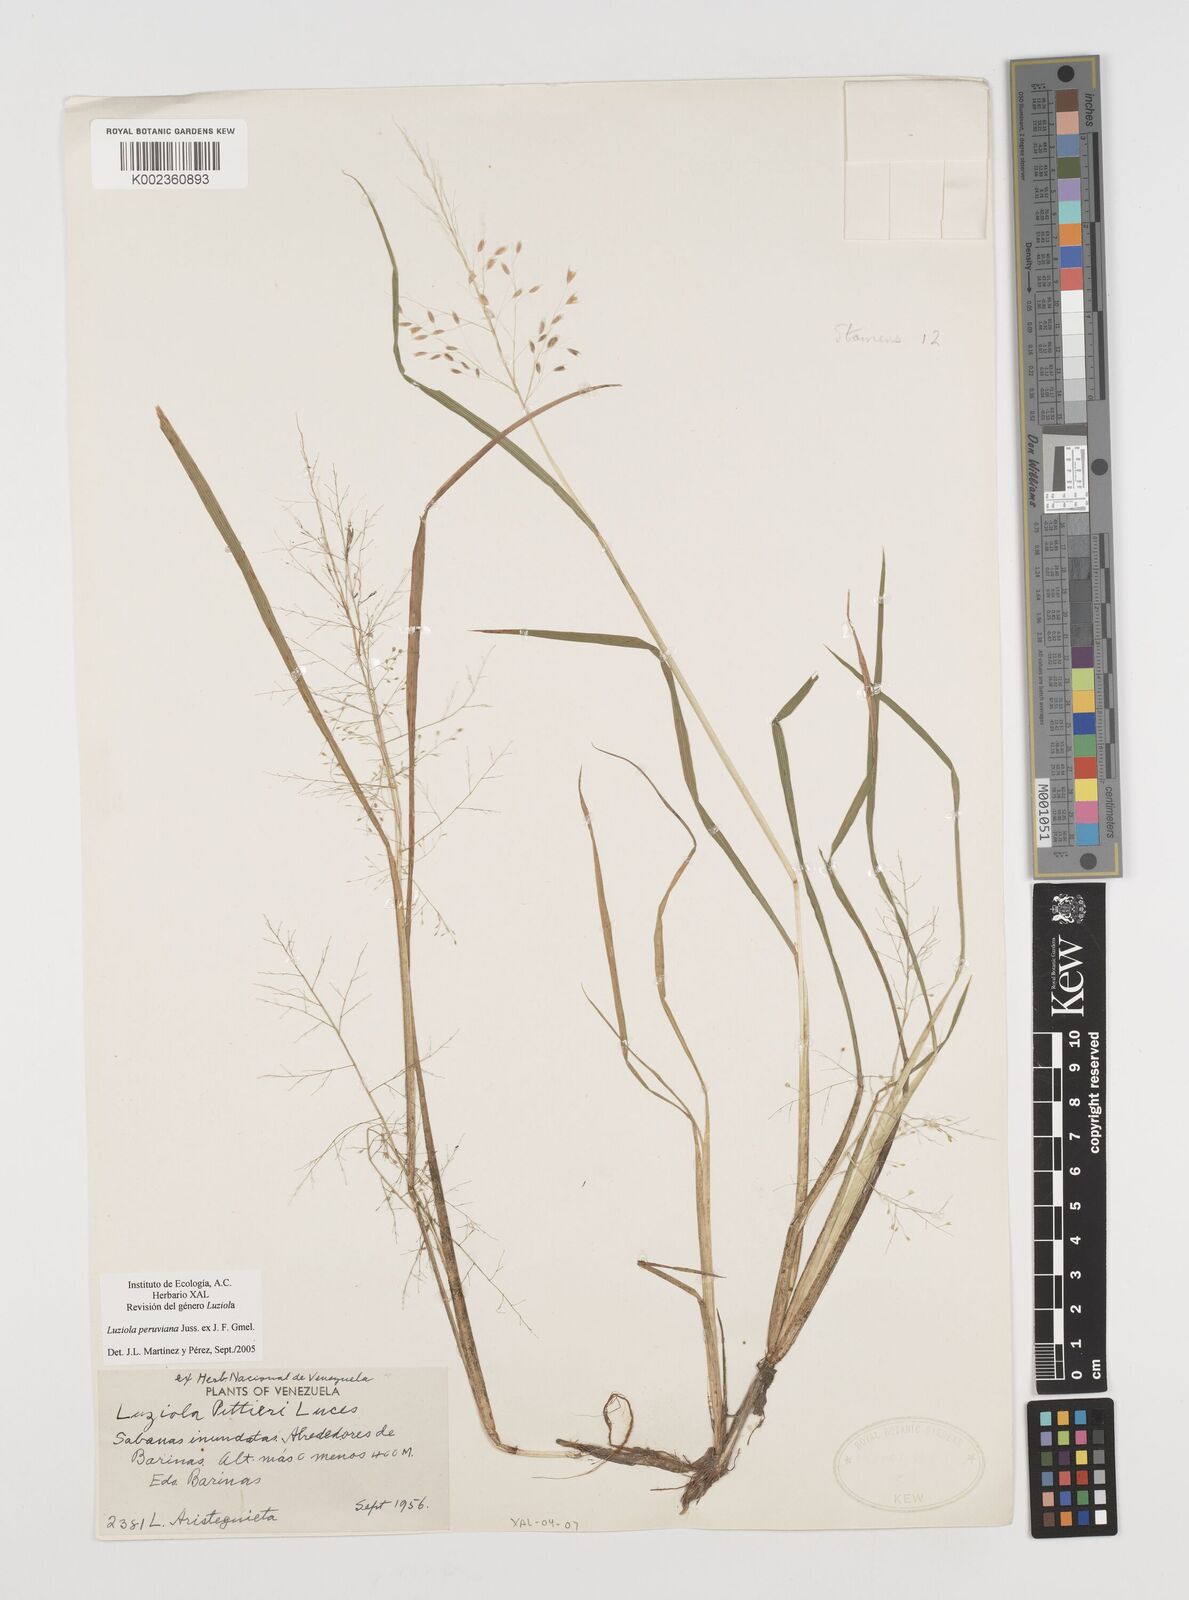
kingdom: Plantae
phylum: Tracheophyta
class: Liliopsida
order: Poales
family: Poaceae
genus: Luziola
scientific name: Luziola peruviana
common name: Peruvian watergrass
